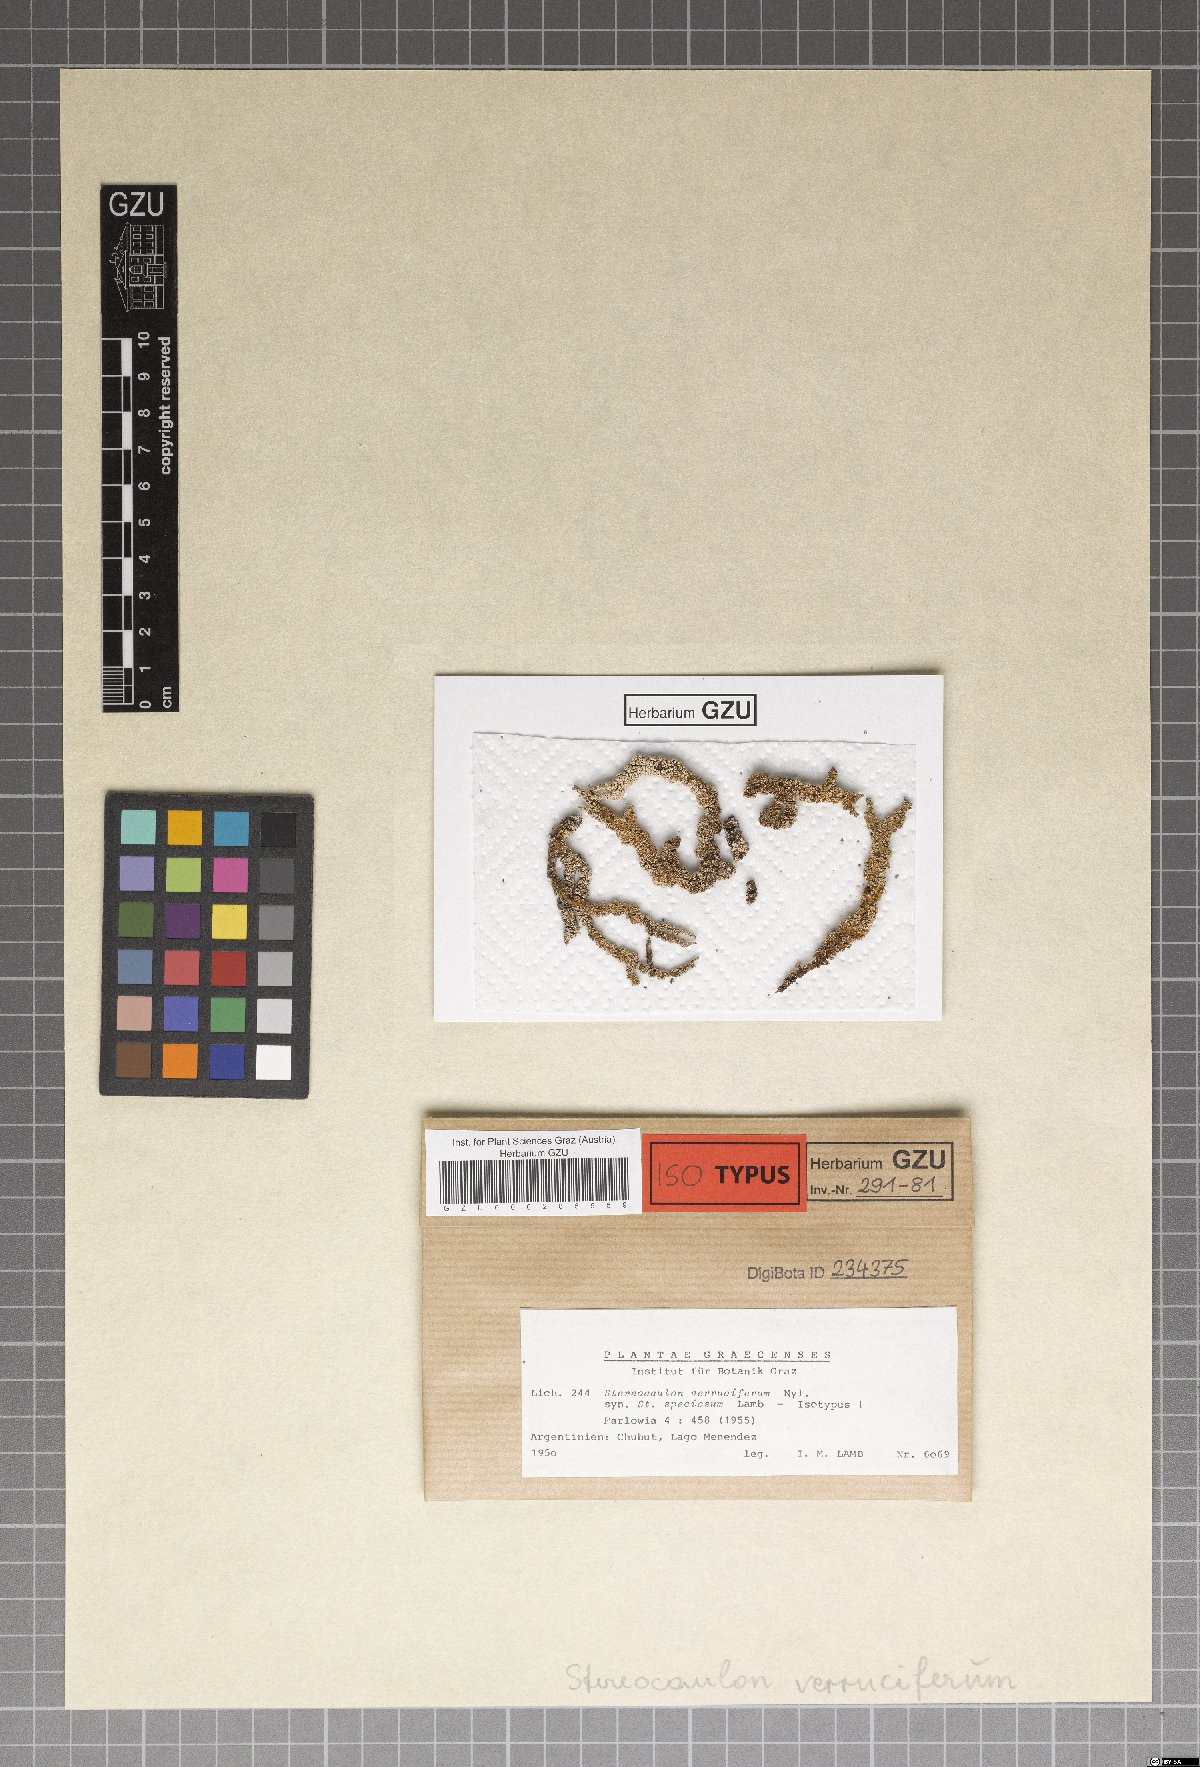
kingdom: Fungi
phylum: Ascomycota
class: Lecanoromycetes
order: Lecanorales
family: Stereocaulaceae
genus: Stereocaulon
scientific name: Stereocaulon
